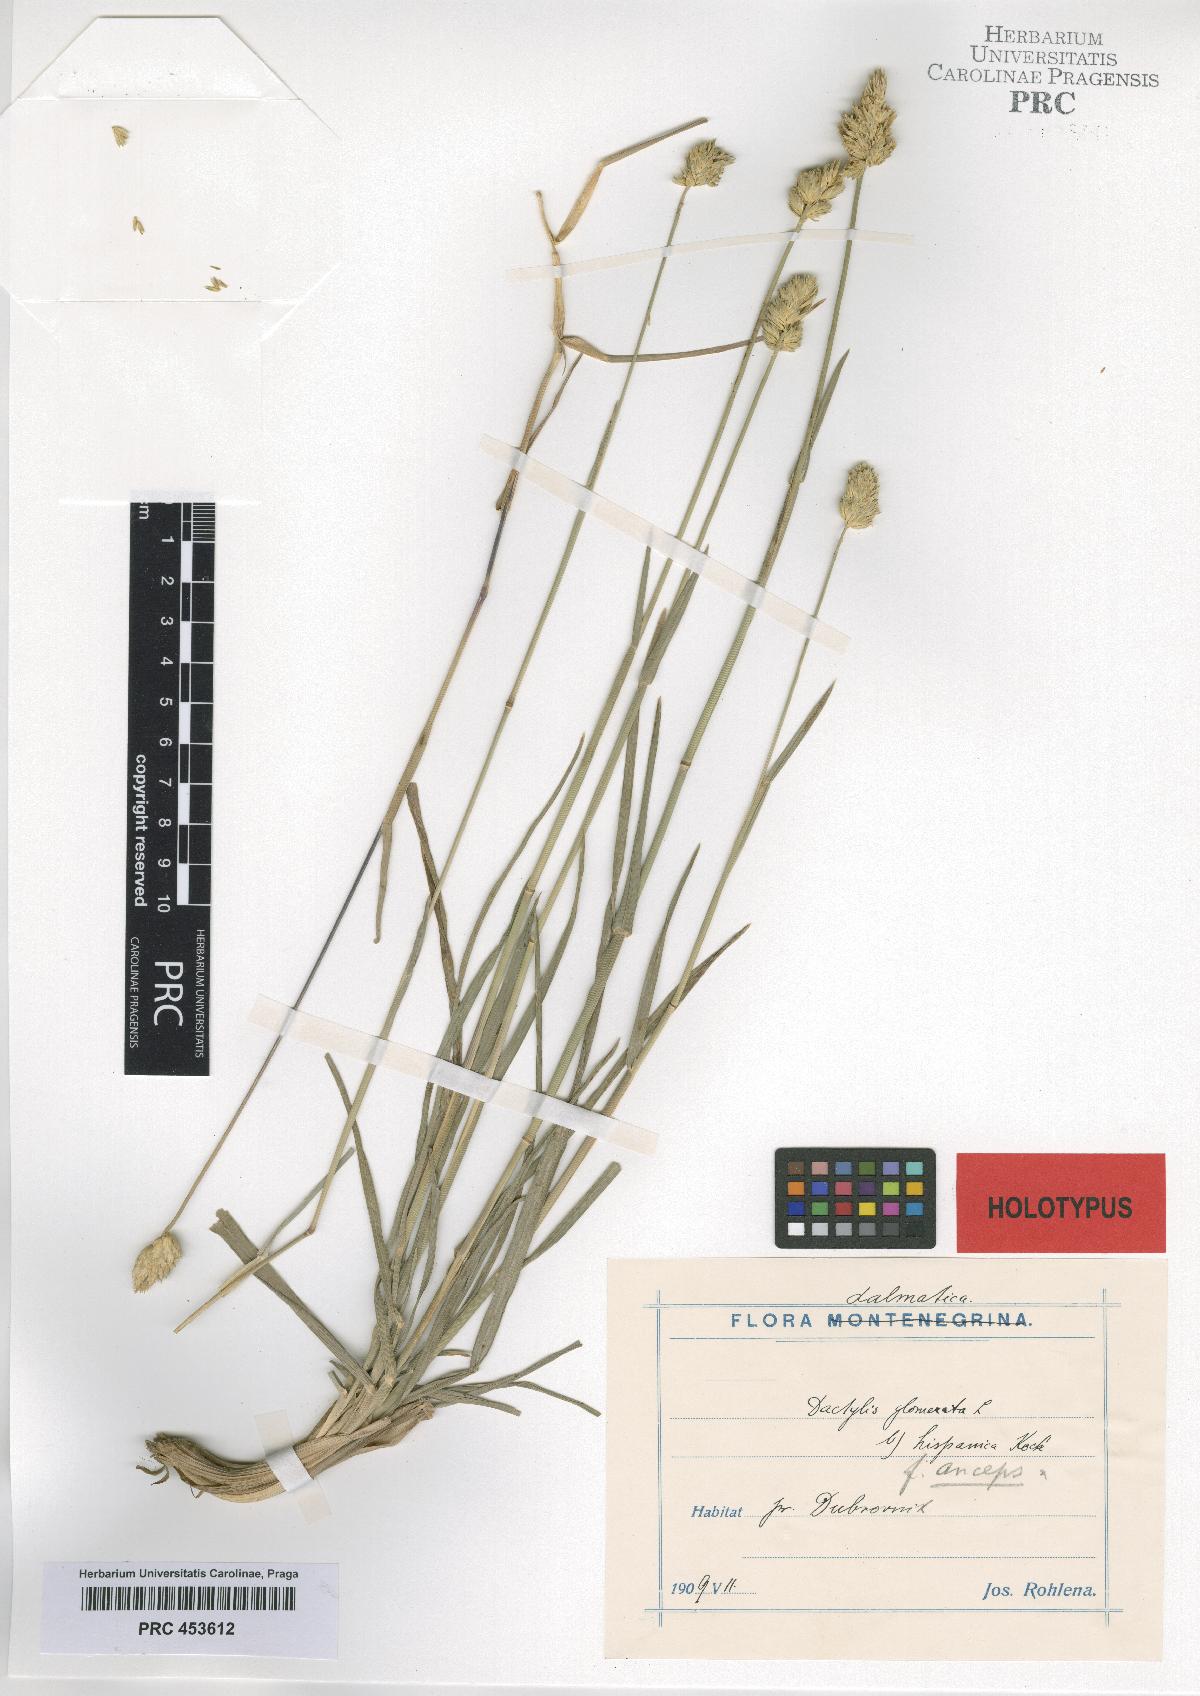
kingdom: Plantae
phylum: Tracheophyta
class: Liliopsida
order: Poales
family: Poaceae
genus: Dactylis
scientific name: Dactylis glomerata
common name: Orchardgrass
